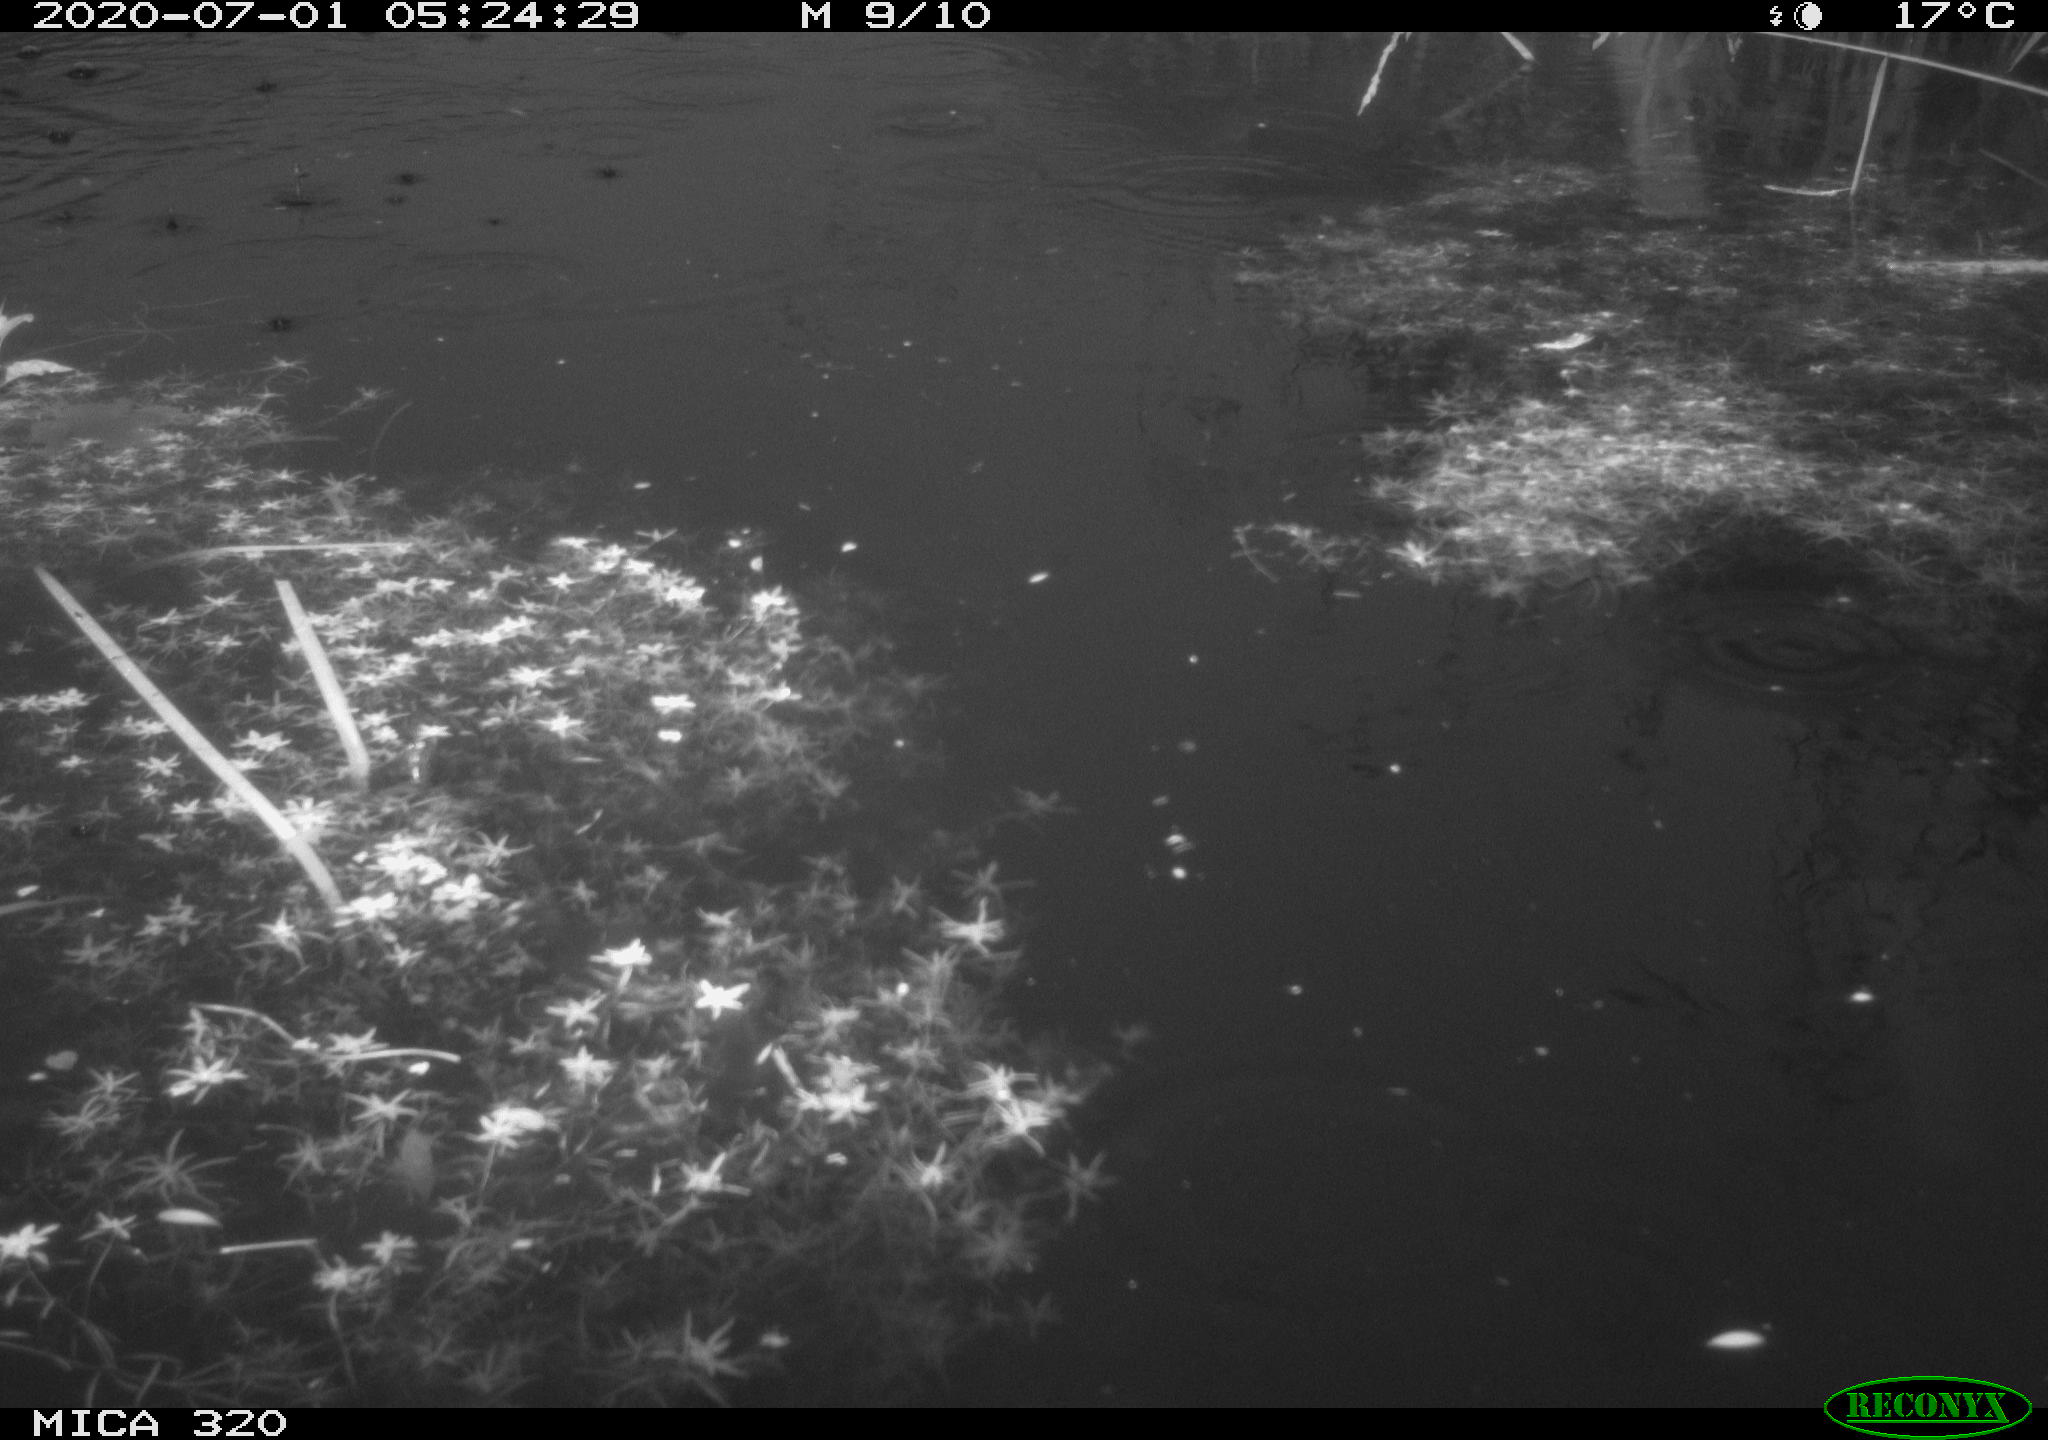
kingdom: Animalia
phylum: Chordata
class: Aves
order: Anseriformes
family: Anatidae
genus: Anas
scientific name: Anas platyrhynchos
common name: Mallard
